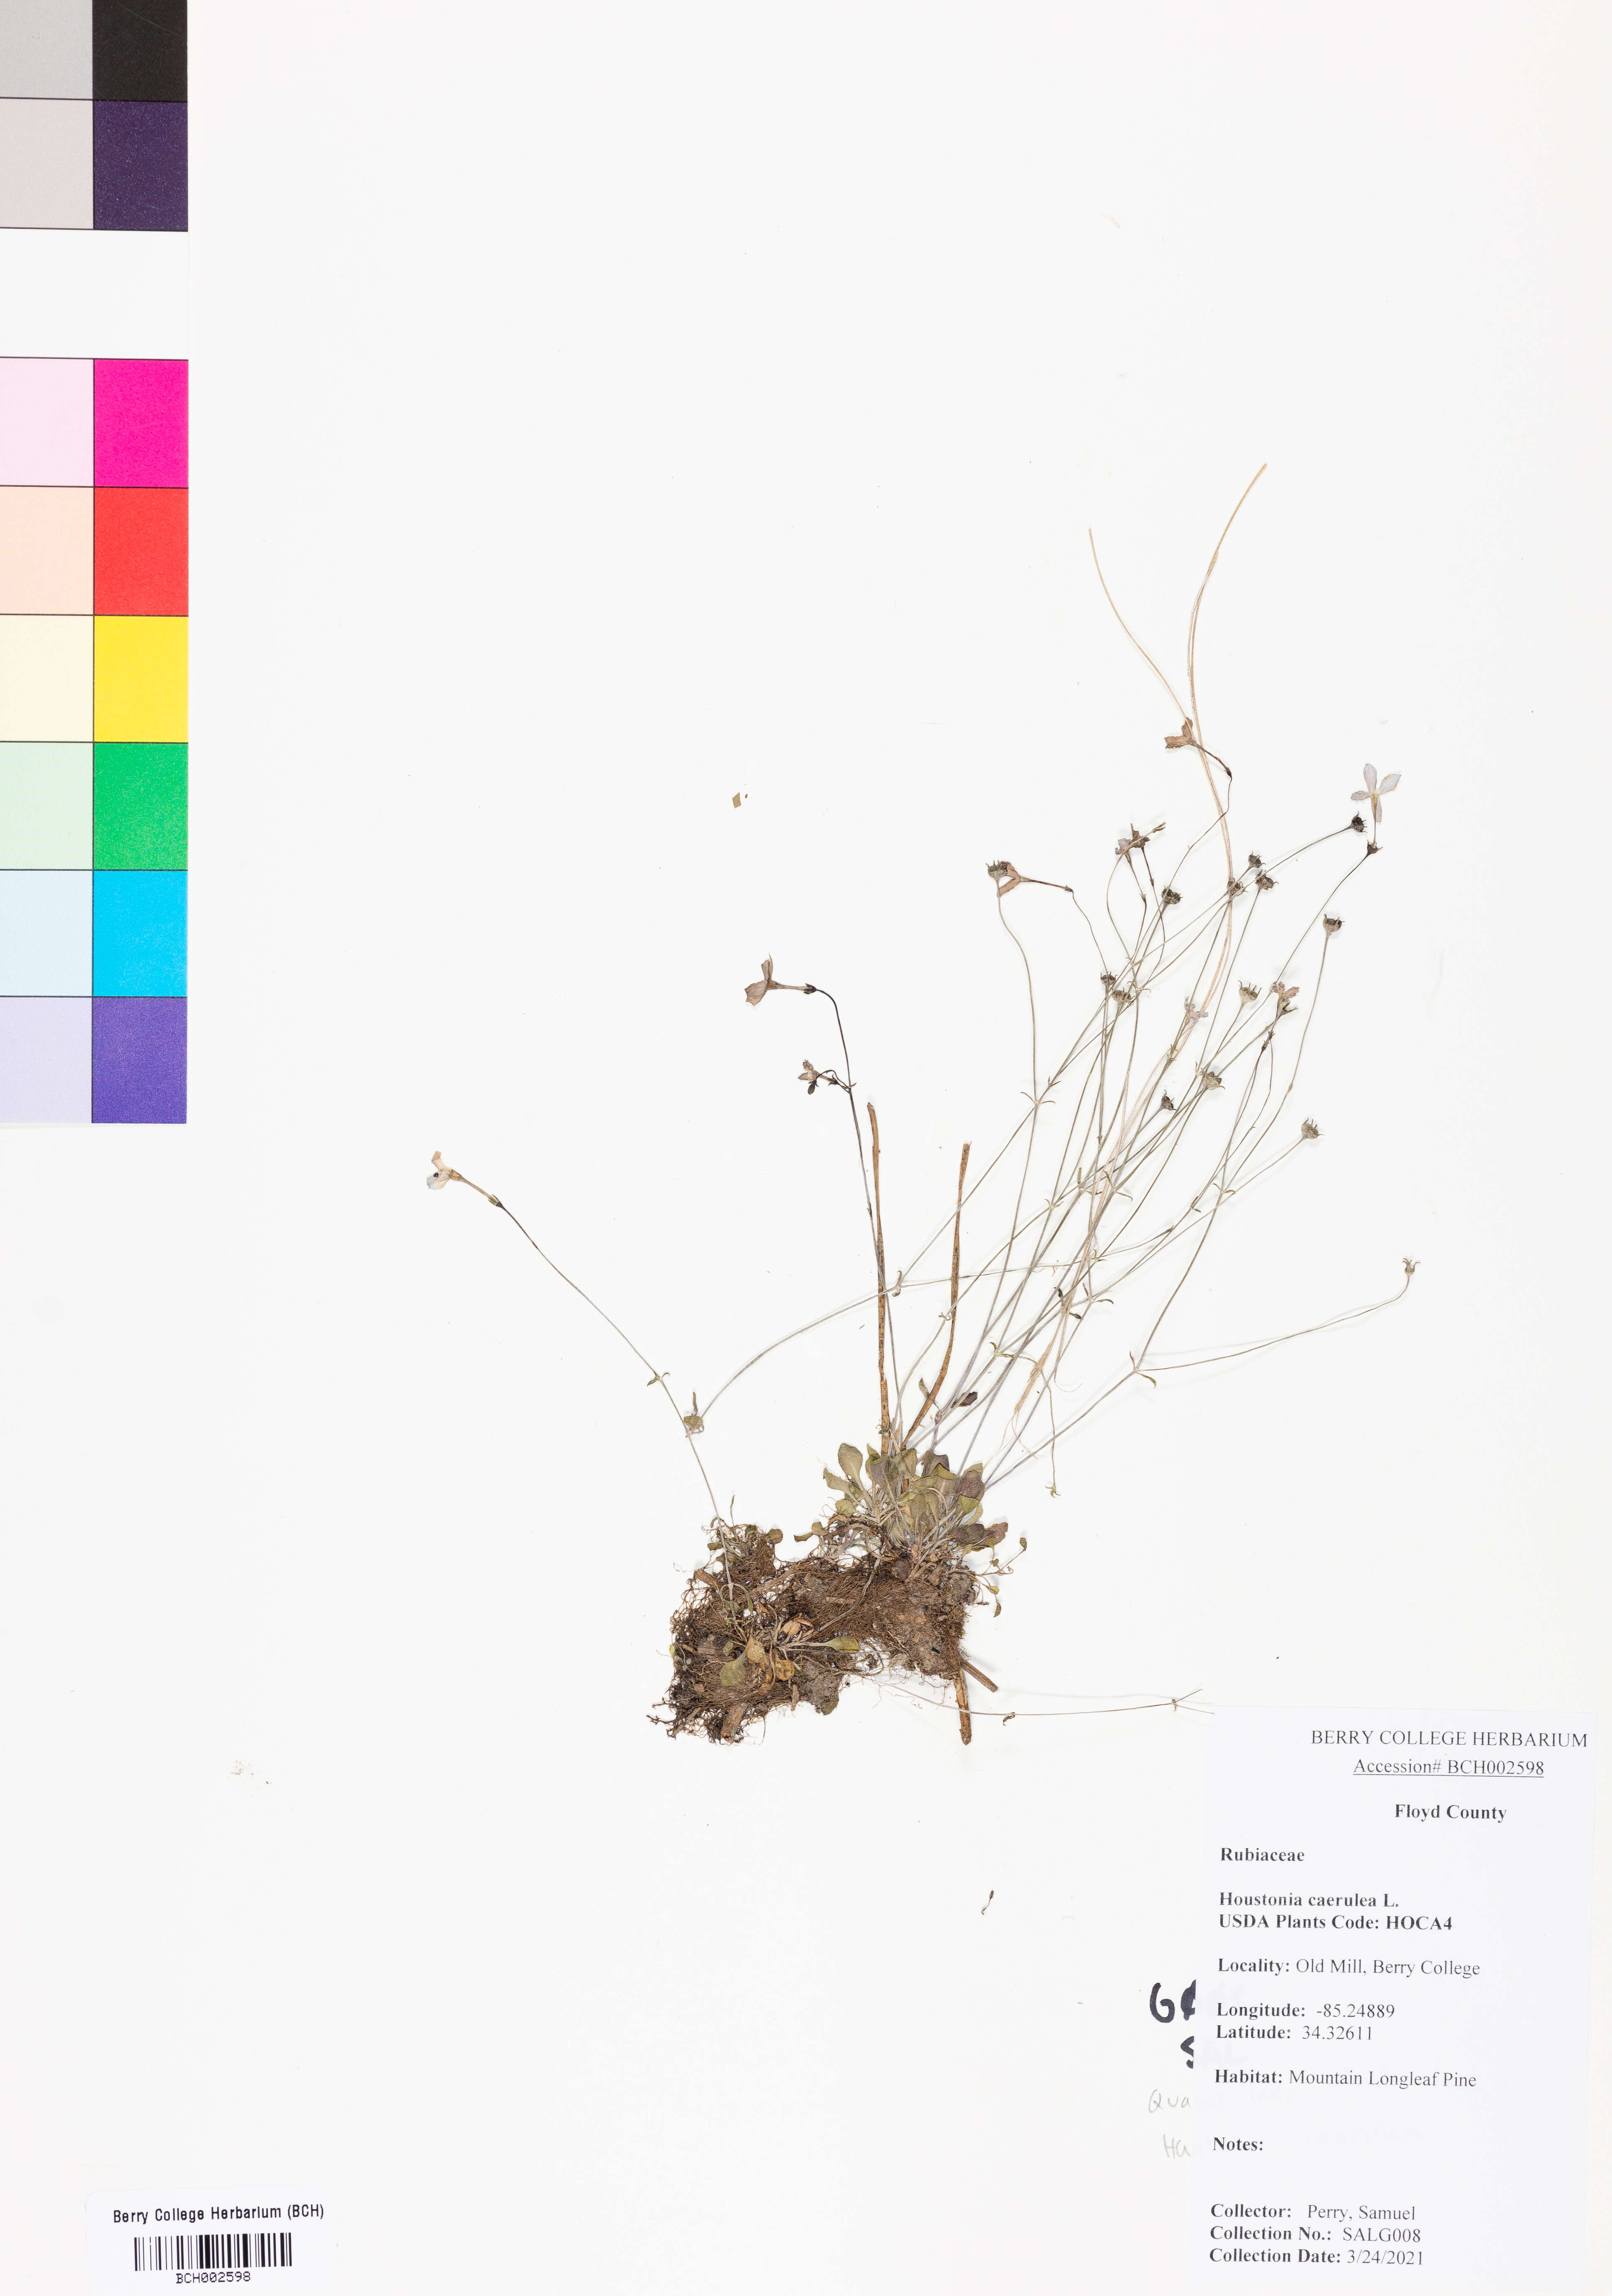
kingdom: Plantae
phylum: Tracheophyta
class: Magnoliopsida
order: Gentianales
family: Rubiaceae
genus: Houstonia
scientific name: Houstonia caerulea
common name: Bluets
